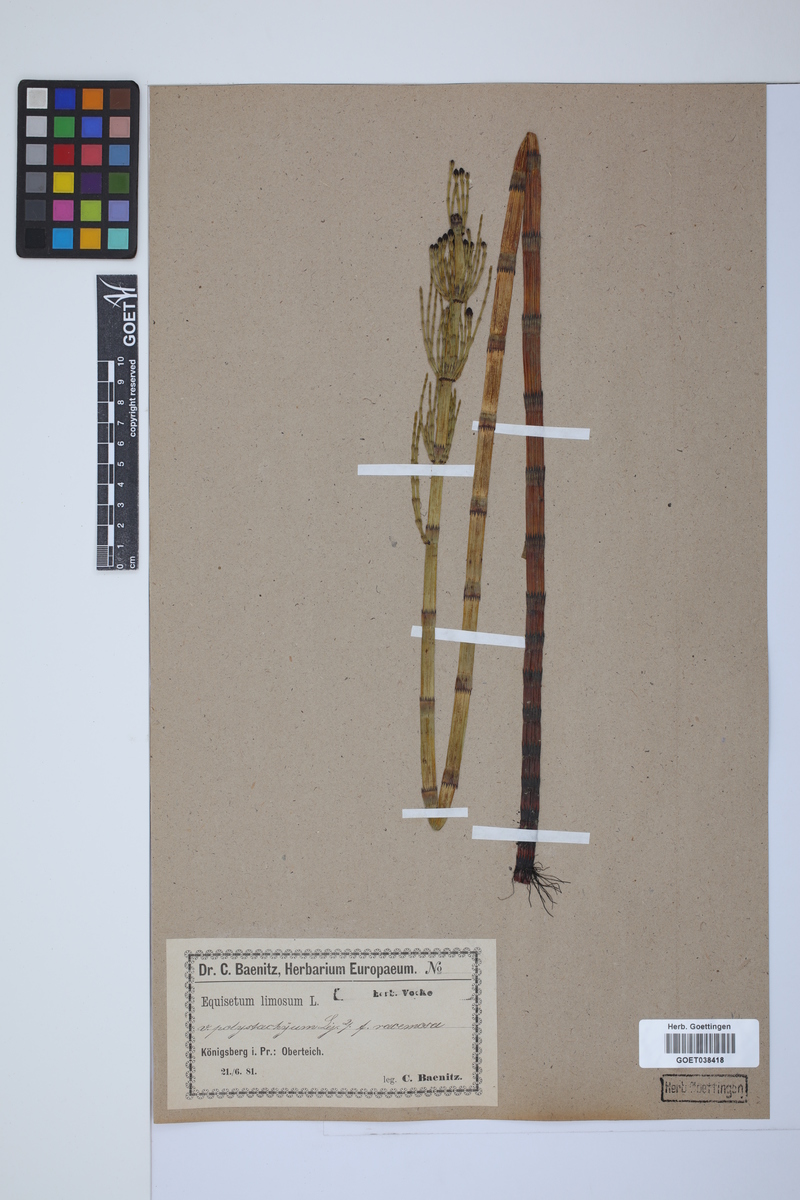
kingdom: Plantae
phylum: Tracheophyta
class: Polypodiopsida
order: Equisetales
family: Equisetaceae
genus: Equisetum
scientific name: Equisetum fluviatile
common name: Water horsetail
